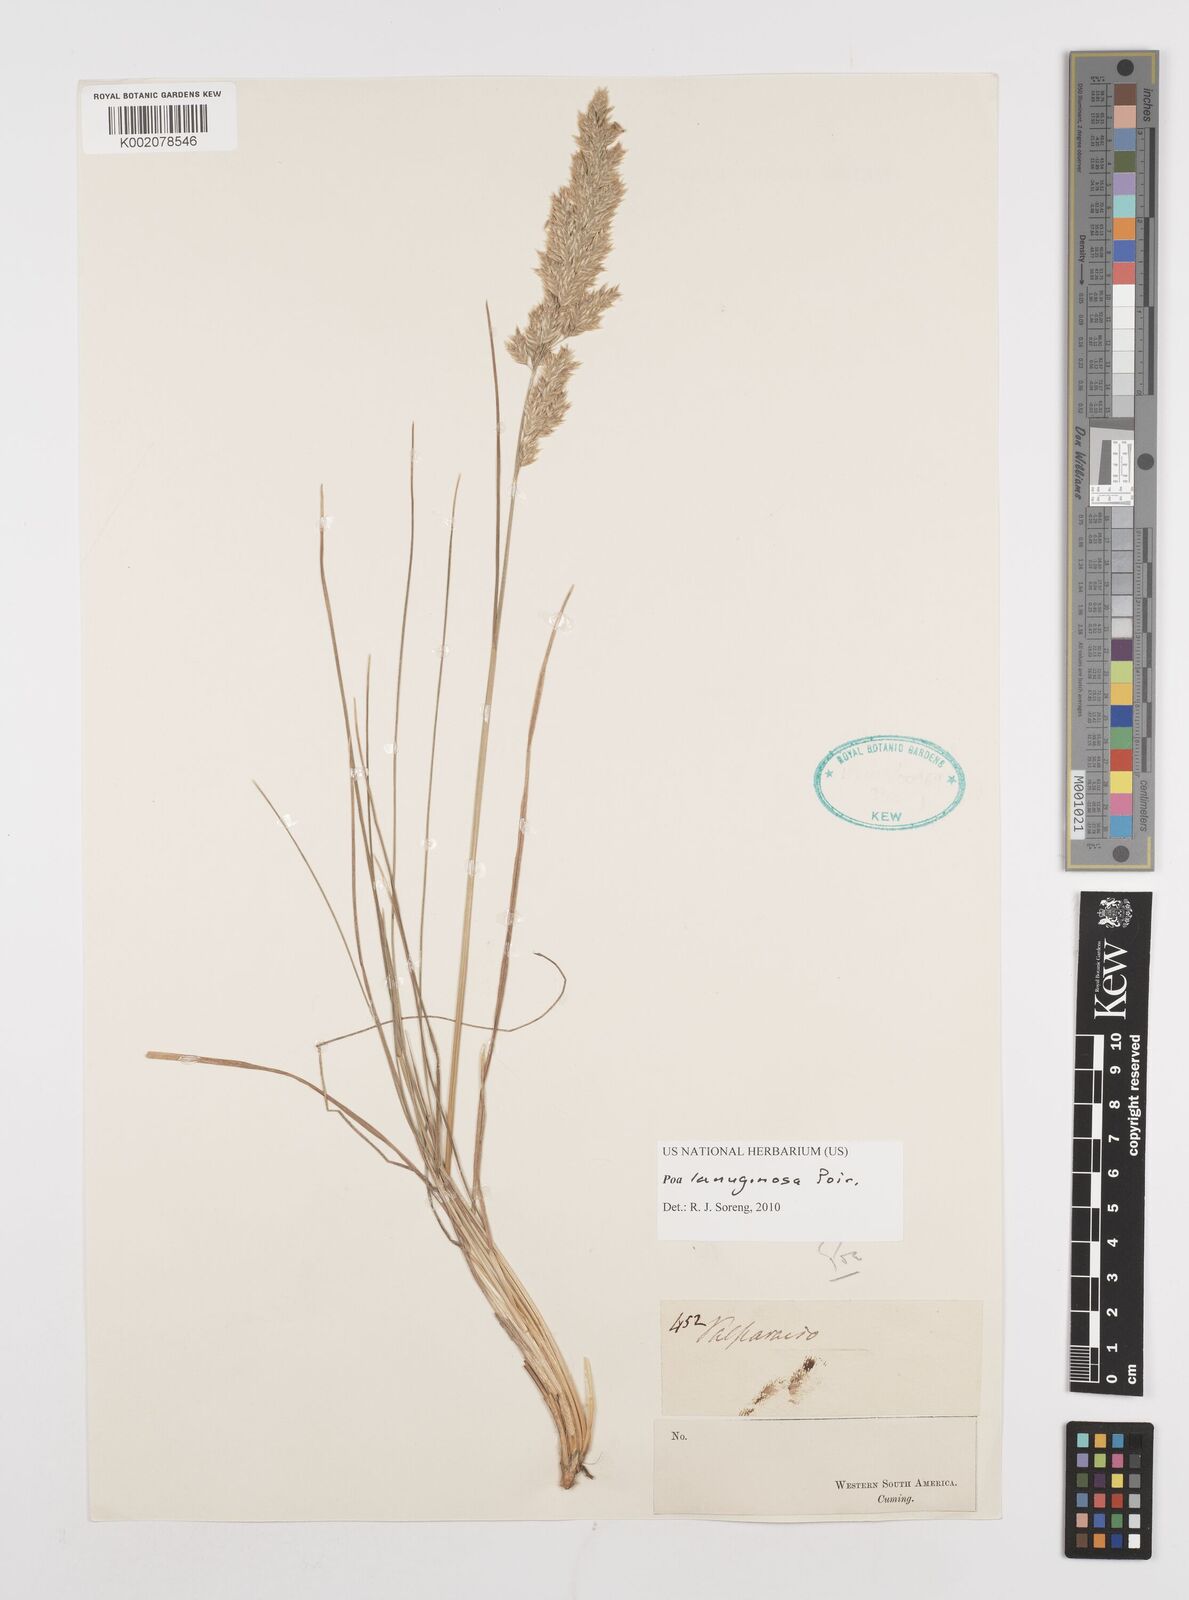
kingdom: Plantae
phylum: Tracheophyta
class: Liliopsida
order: Poales
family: Poaceae
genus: Poa
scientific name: Poa lanuginosa
